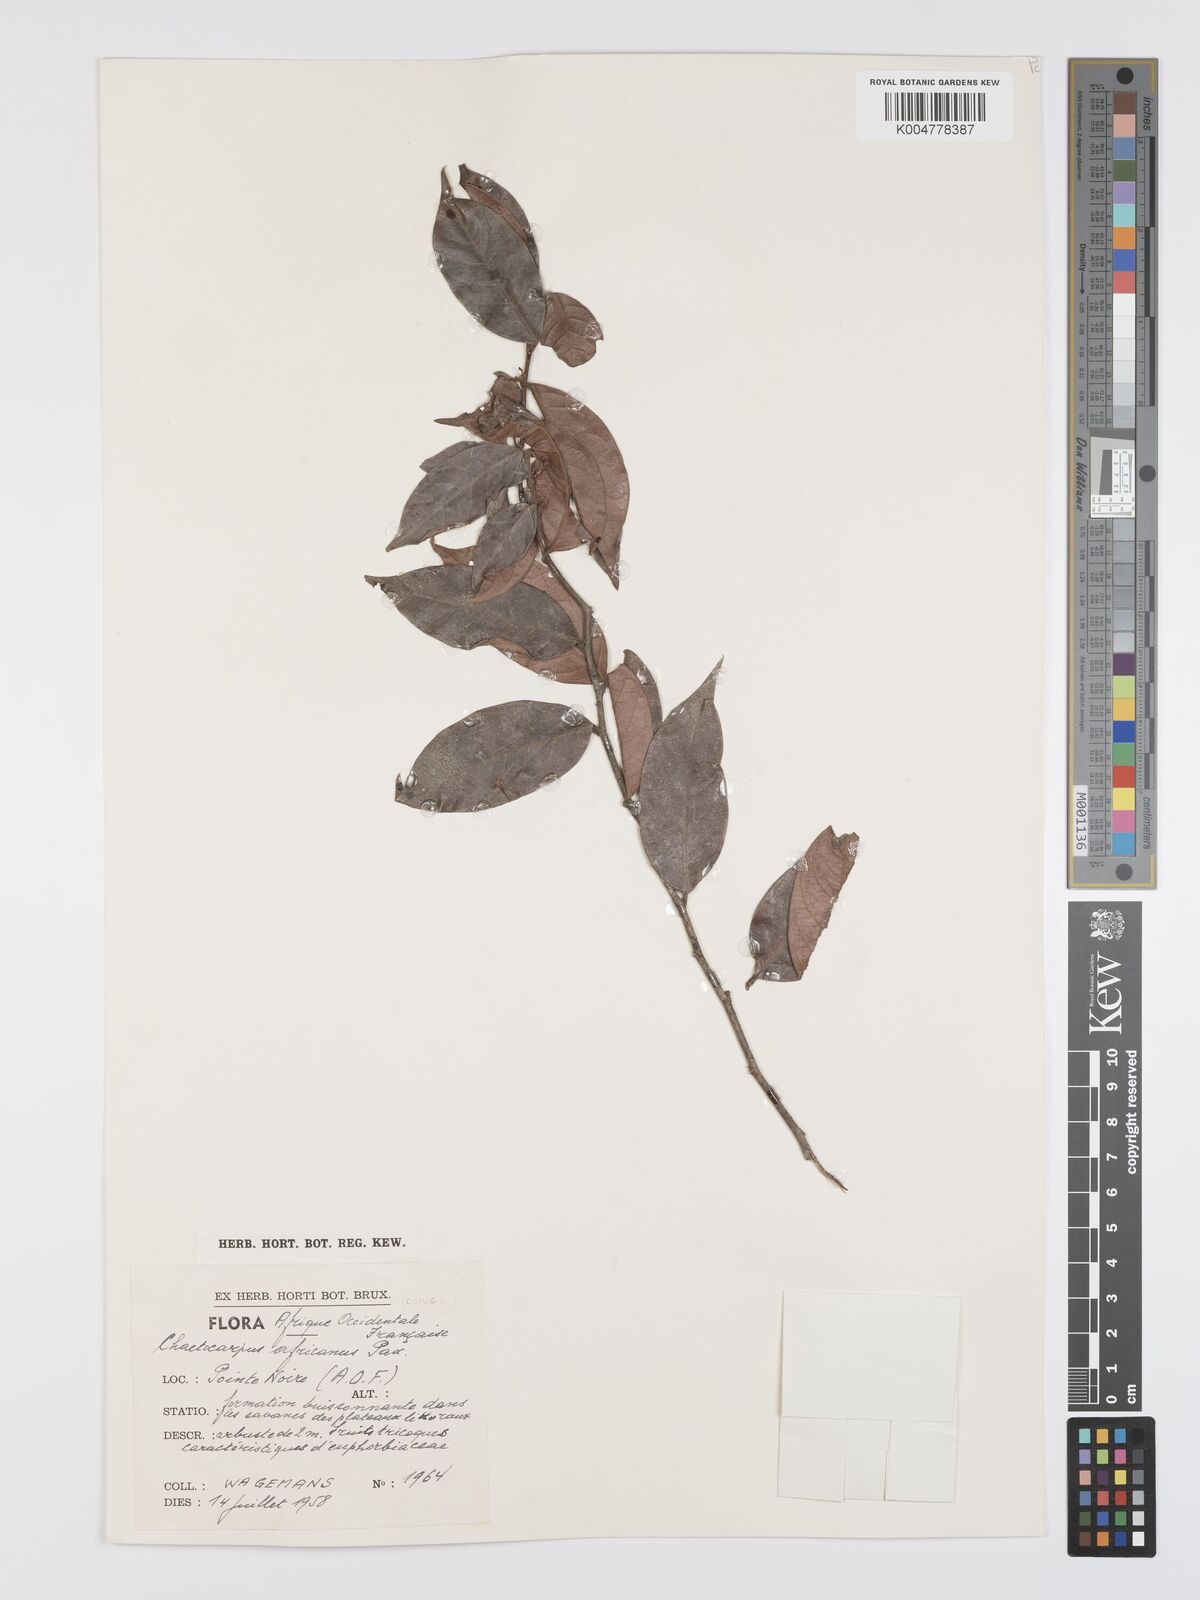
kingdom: Plantae
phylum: Tracheophyta
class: Magnoliopsida
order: Malpighiales
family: Peraceae
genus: Chaetocarpus
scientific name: Chaetocarpus africanus
